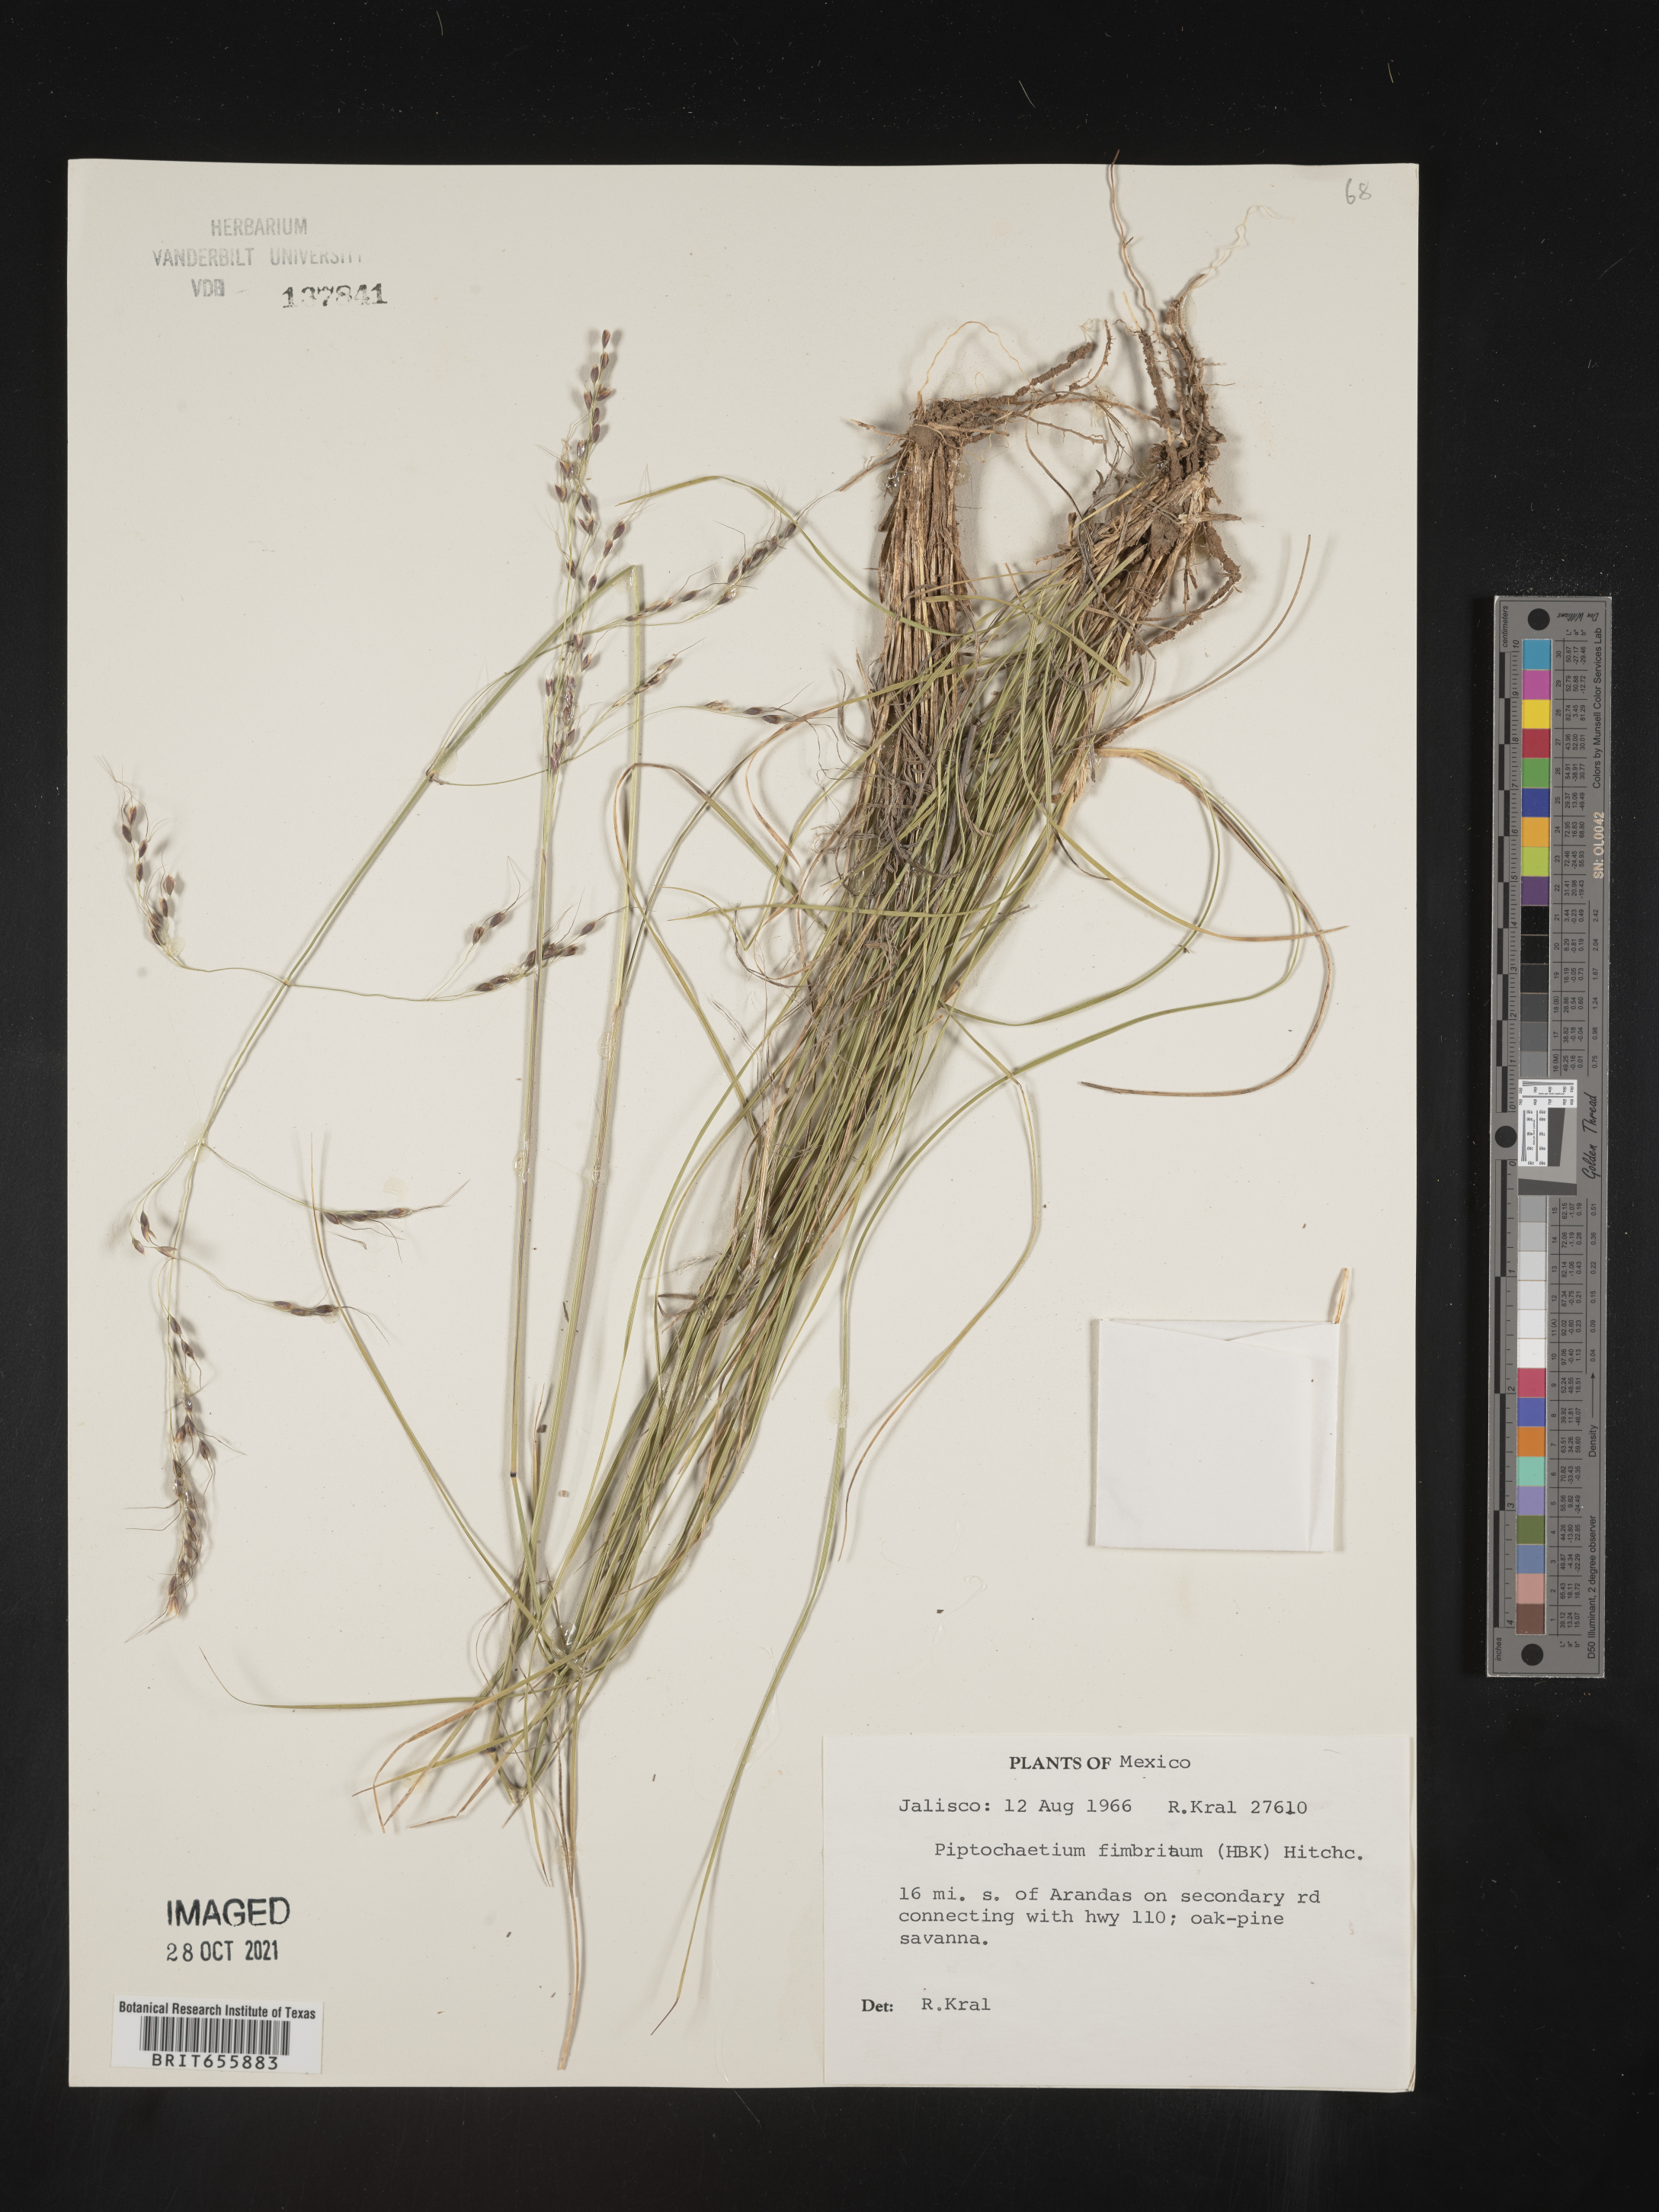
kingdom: Plantae
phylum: Tracheophyta
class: Liliopsida
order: Poales
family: Poaceae
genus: Piptochaetium
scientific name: Piptochaetium
